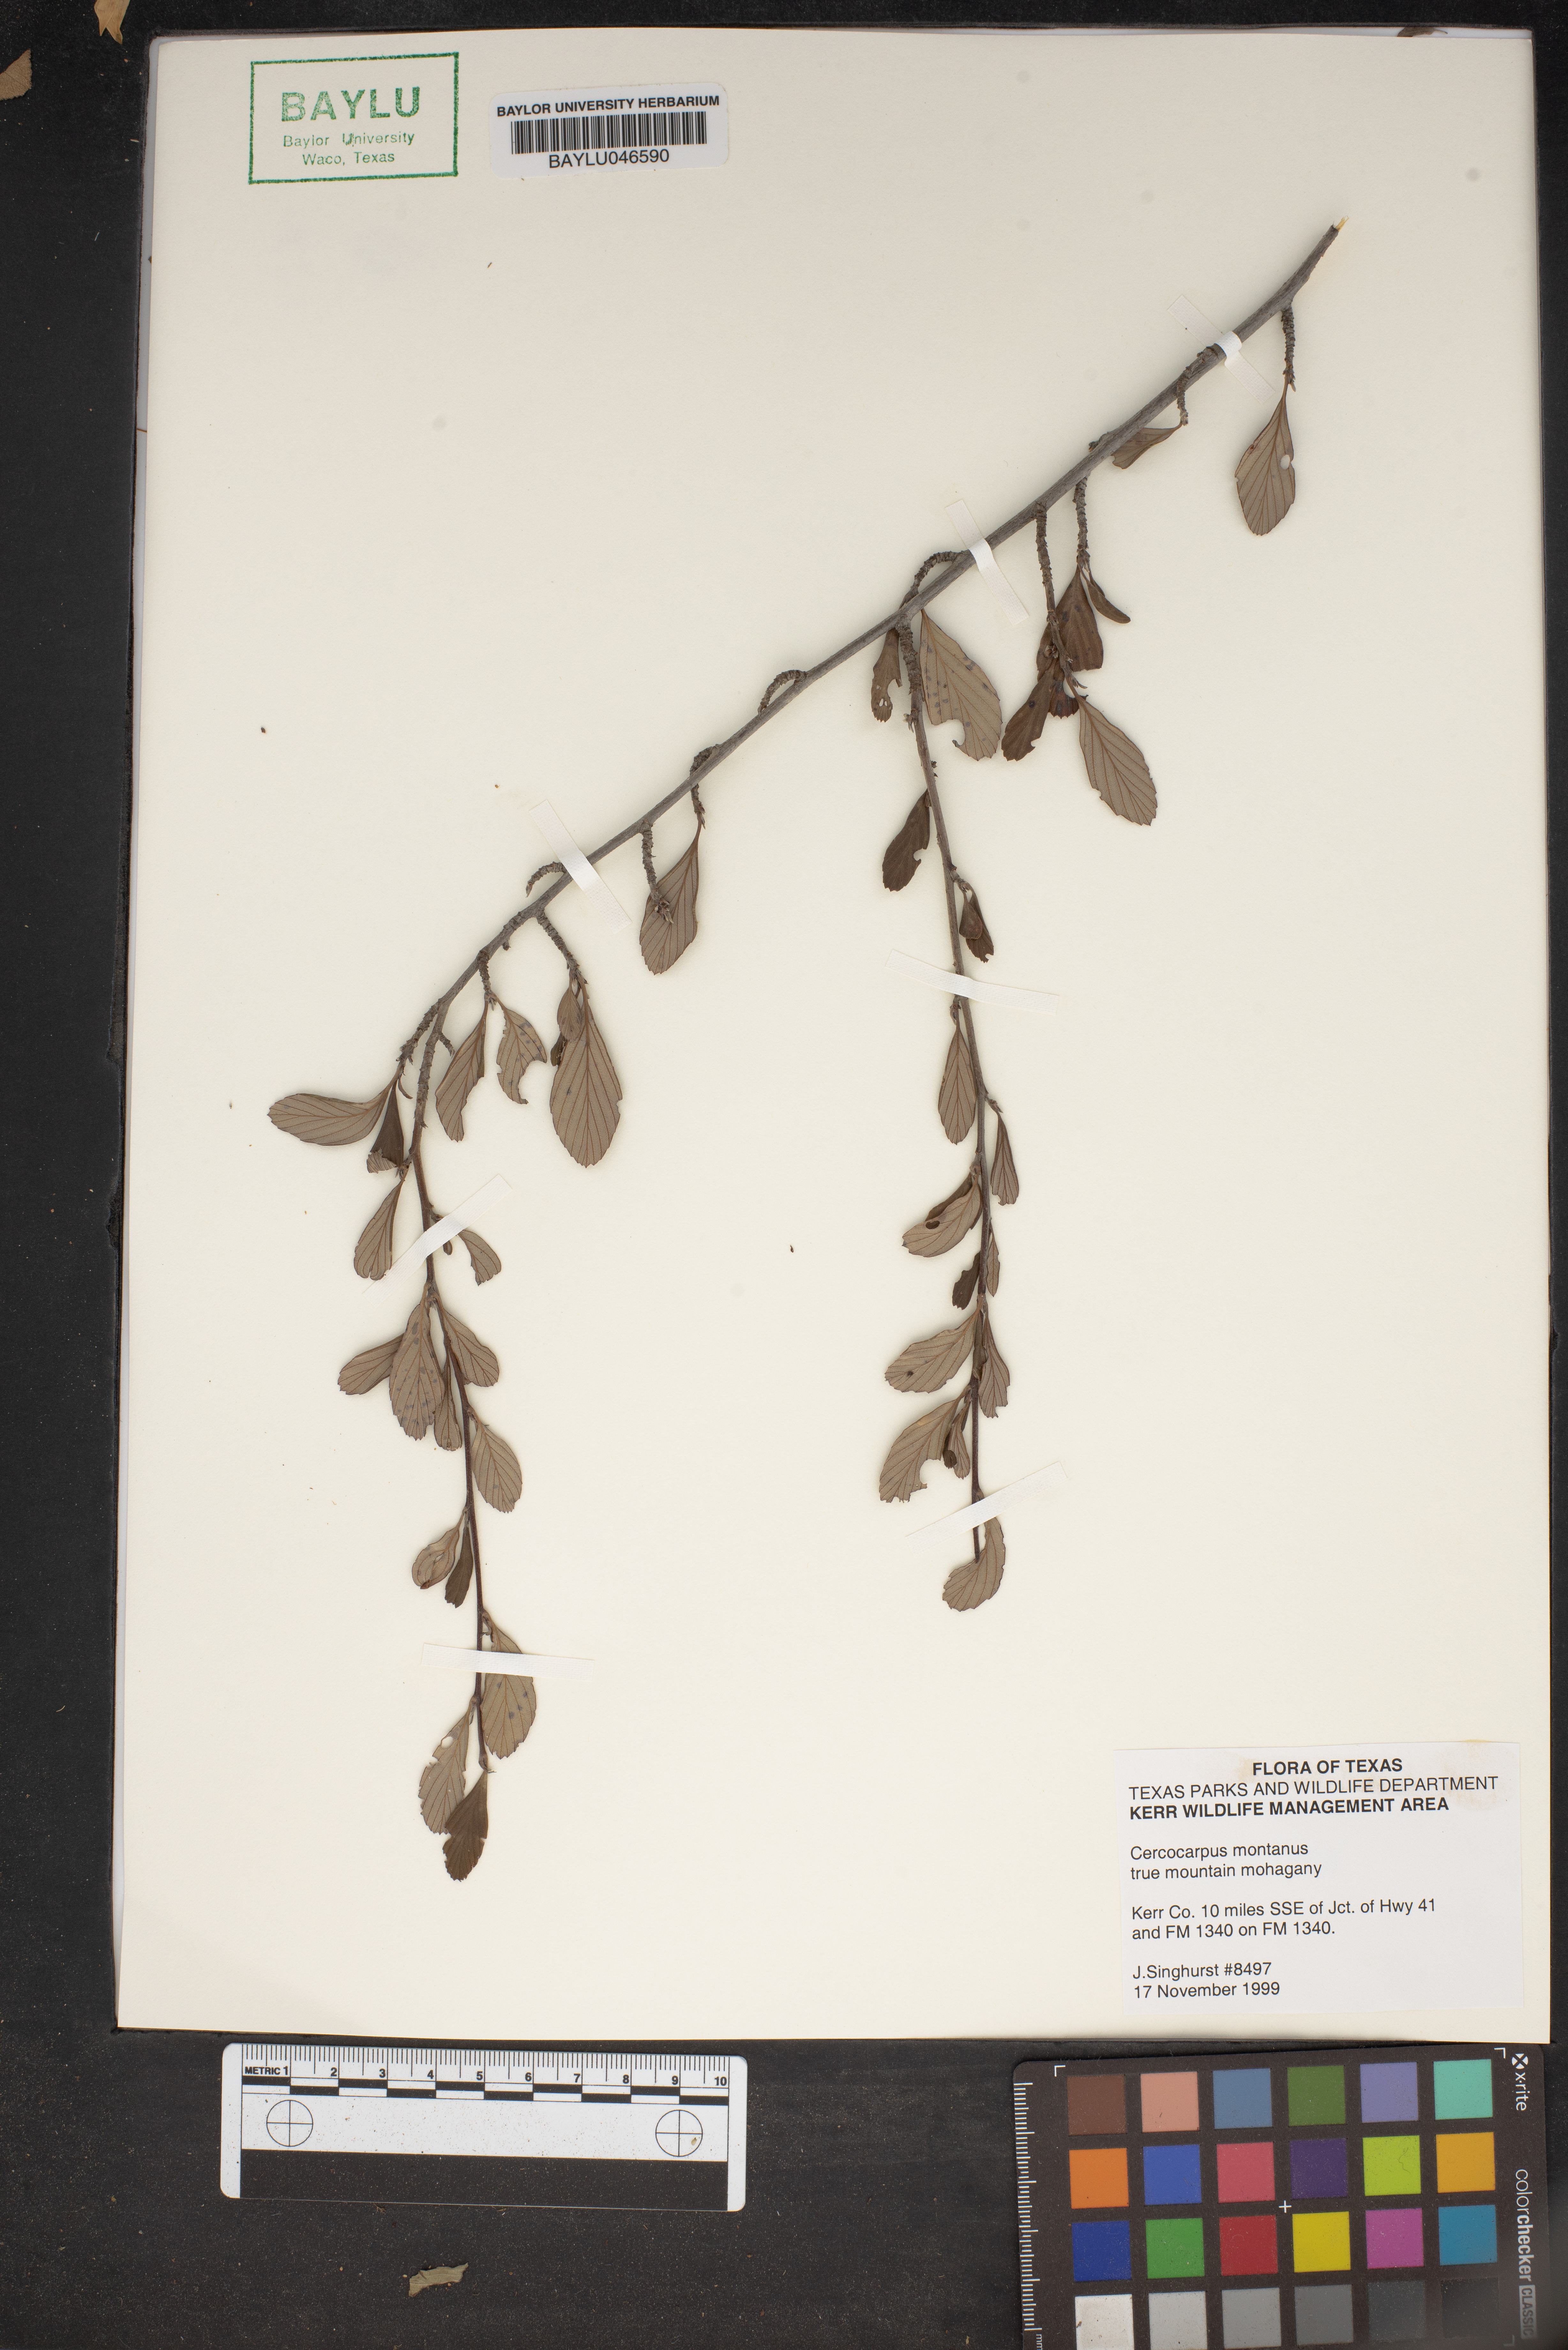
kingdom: Plantae
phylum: Tracheophyta
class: Magnoliopsida
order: Rosales
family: Rosaceae
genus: Cercocarpus
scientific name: Cercocarpus montanus
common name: Alder-leaf cercocarpus
